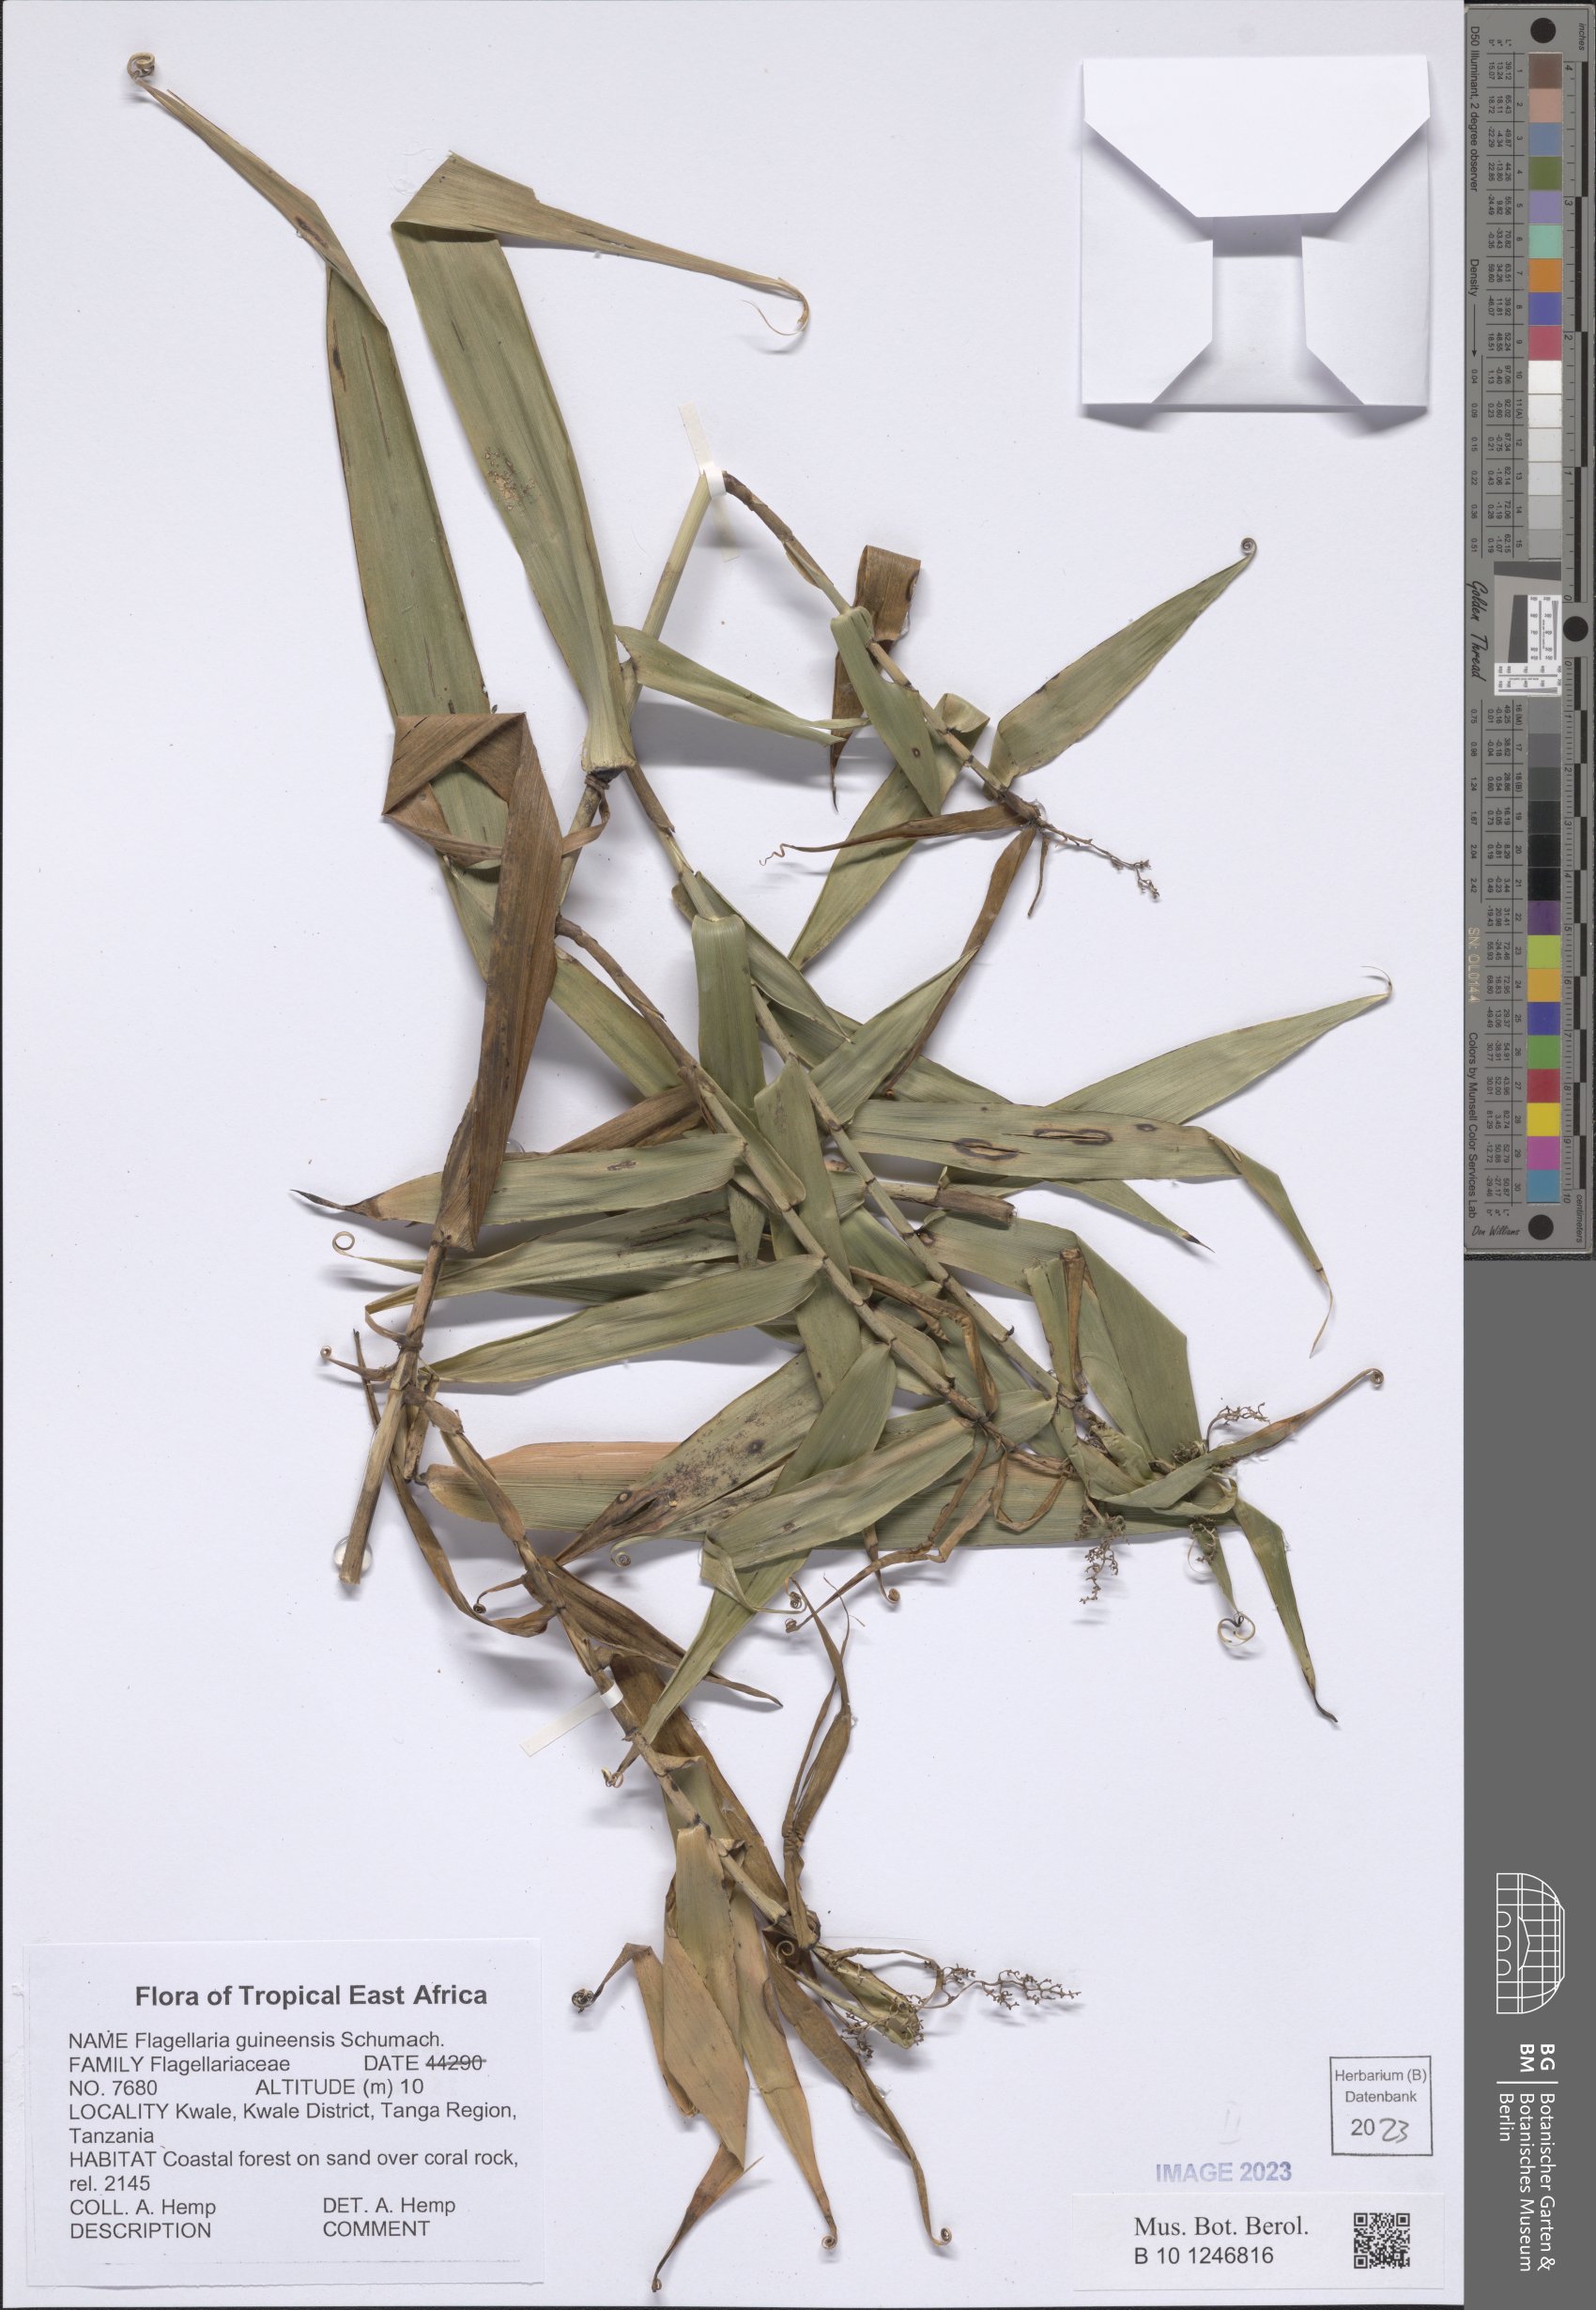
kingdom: Plantae
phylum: Tracheophyta
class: Liliopsida
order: Poales
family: Flagellariaceae
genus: Flagellaria
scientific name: Flagellaria guineensis
